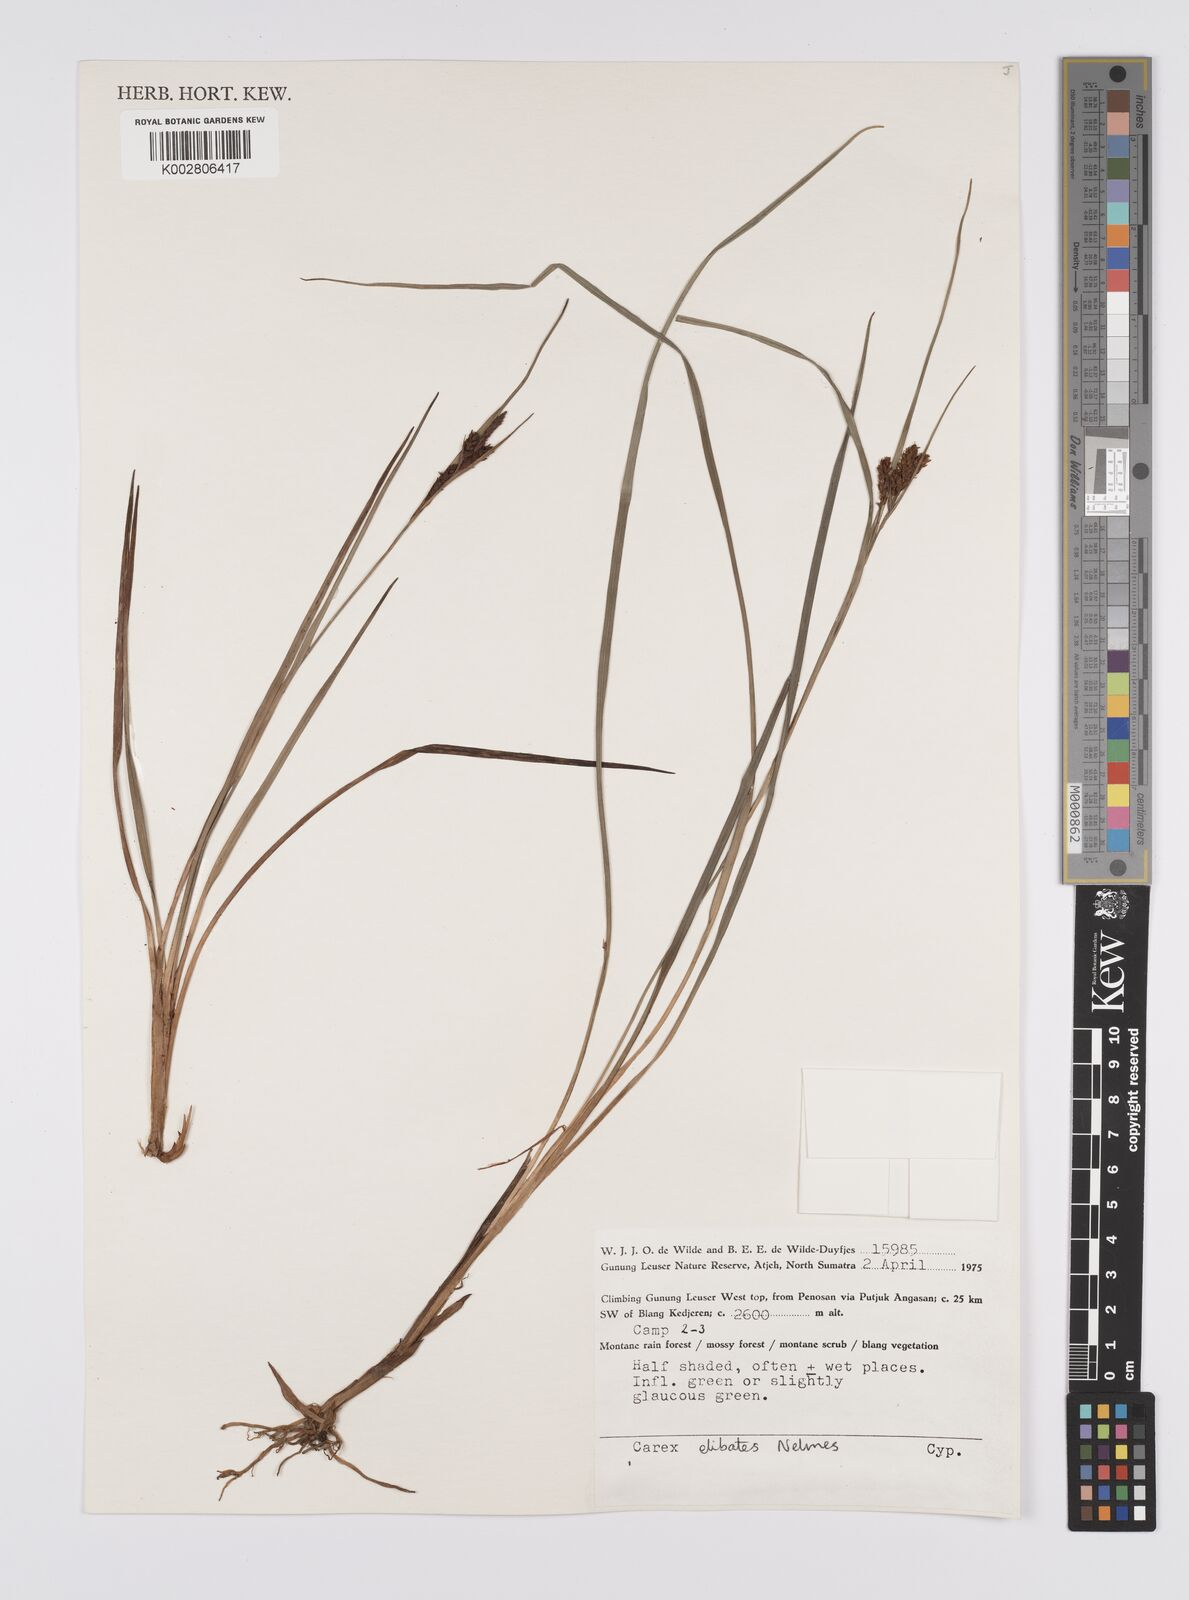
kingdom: Plantae
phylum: Tracheophyta
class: Liliopsida
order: Poales
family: Cyperaceae
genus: Carex
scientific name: Carex maculata
